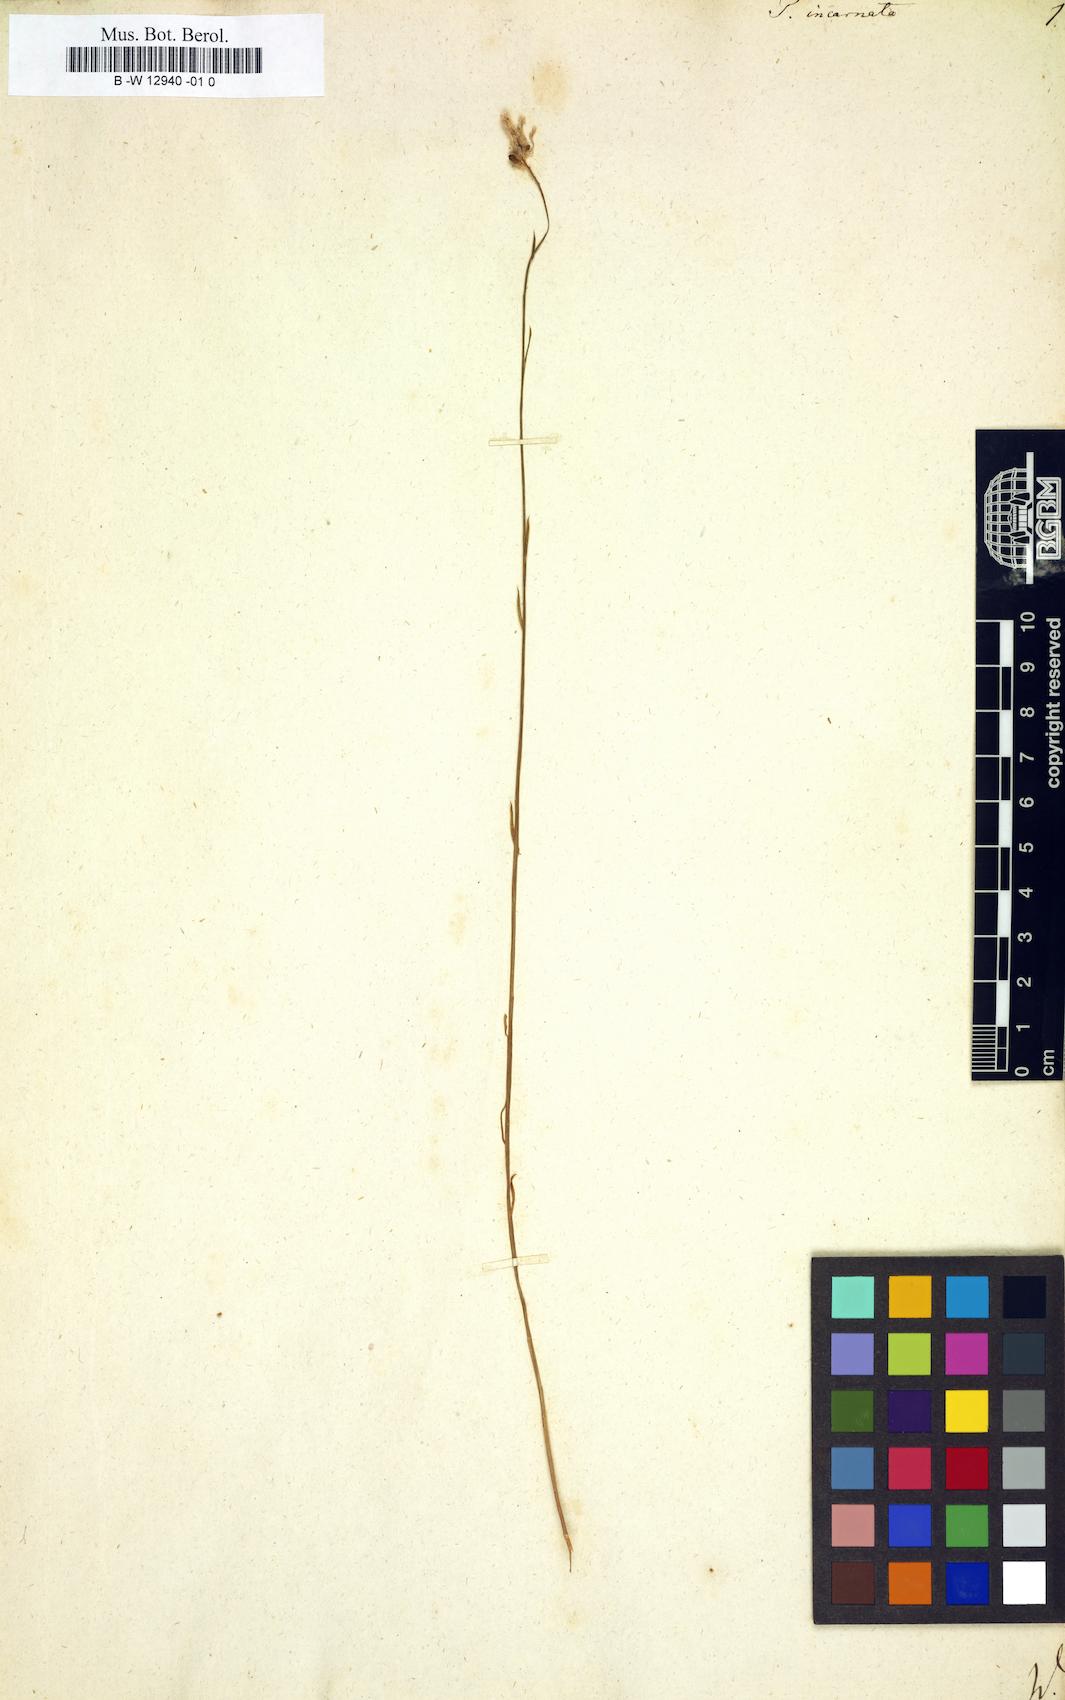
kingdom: Plantae
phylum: Tracheophyta
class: Magnoliopsida
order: Fabales
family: Polygalaceae
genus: Polygala
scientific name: Polygala incarnata
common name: Pink milkwort
